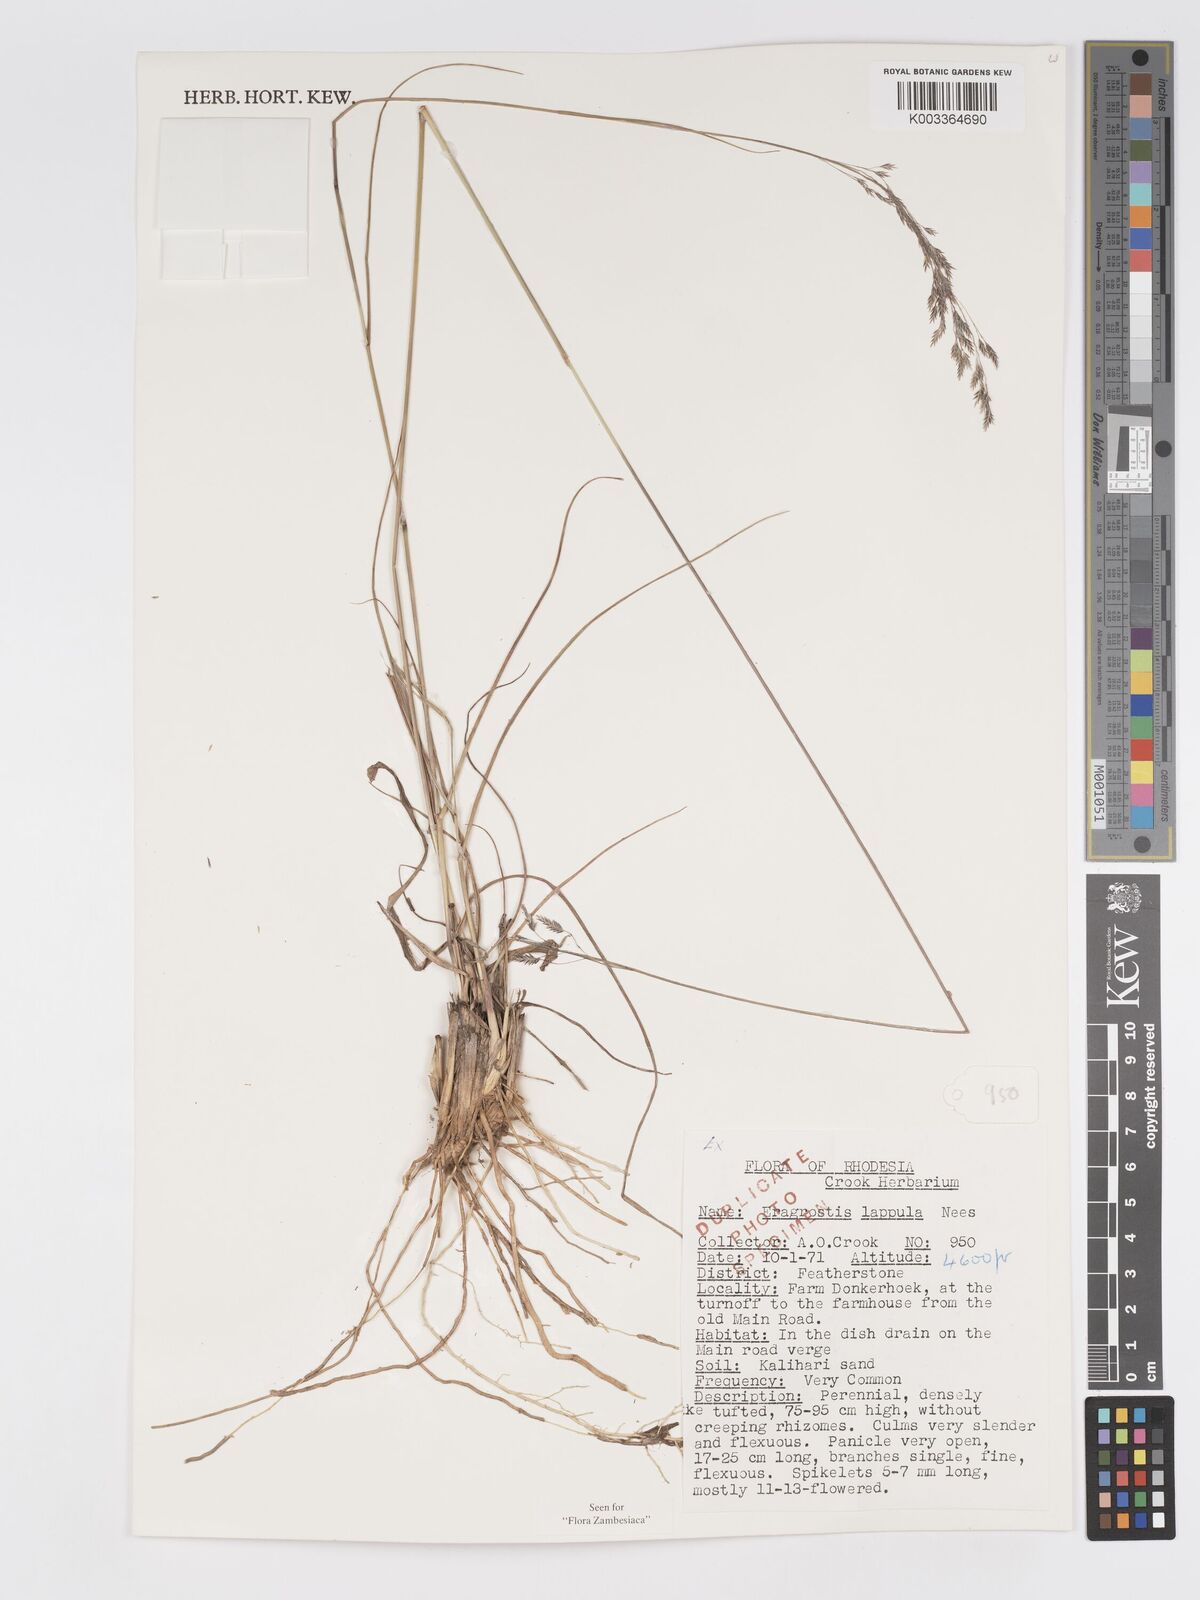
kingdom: Plantae
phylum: Tracheophyta
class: Liliopsida
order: Poales
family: Poaceae
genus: Eragrostis
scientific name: Eragrostis lappula
